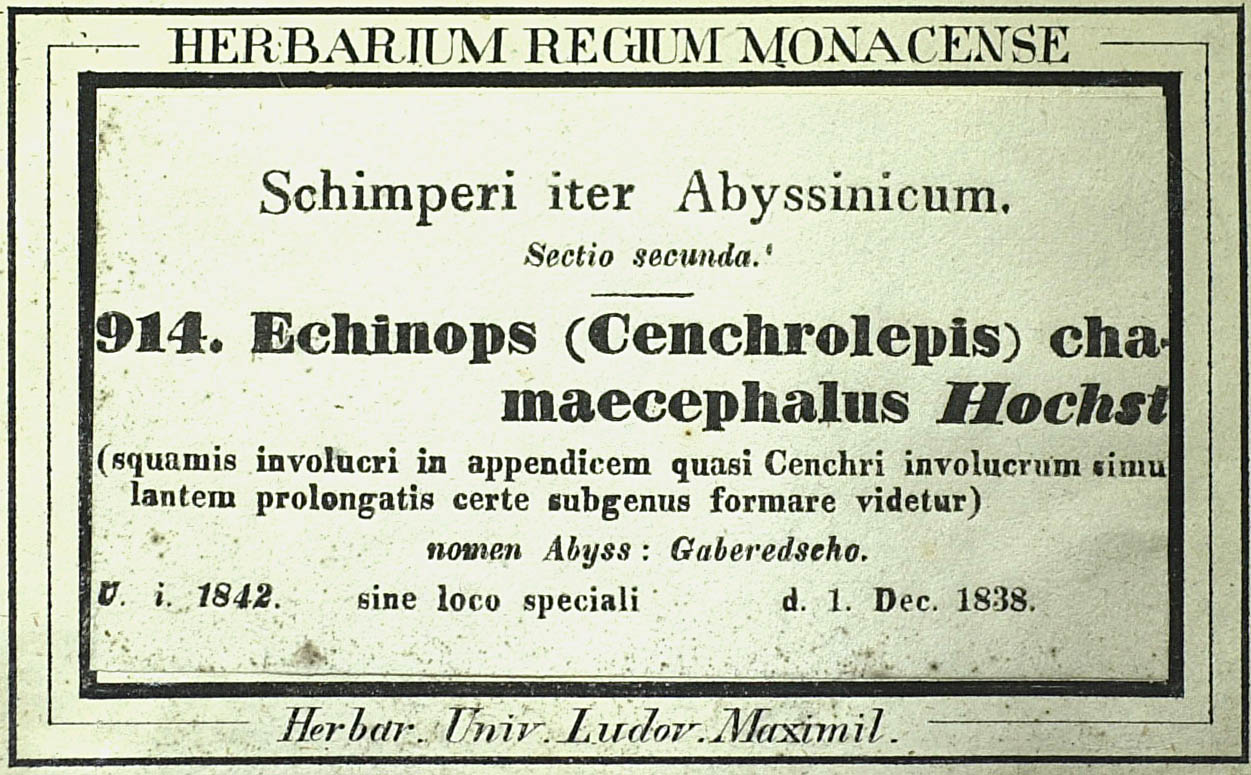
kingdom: Plantae
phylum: Tracheophyta
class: Magnoliopsida
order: Asterales
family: Asteraceae
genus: Echinops
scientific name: Echinops hispidus
